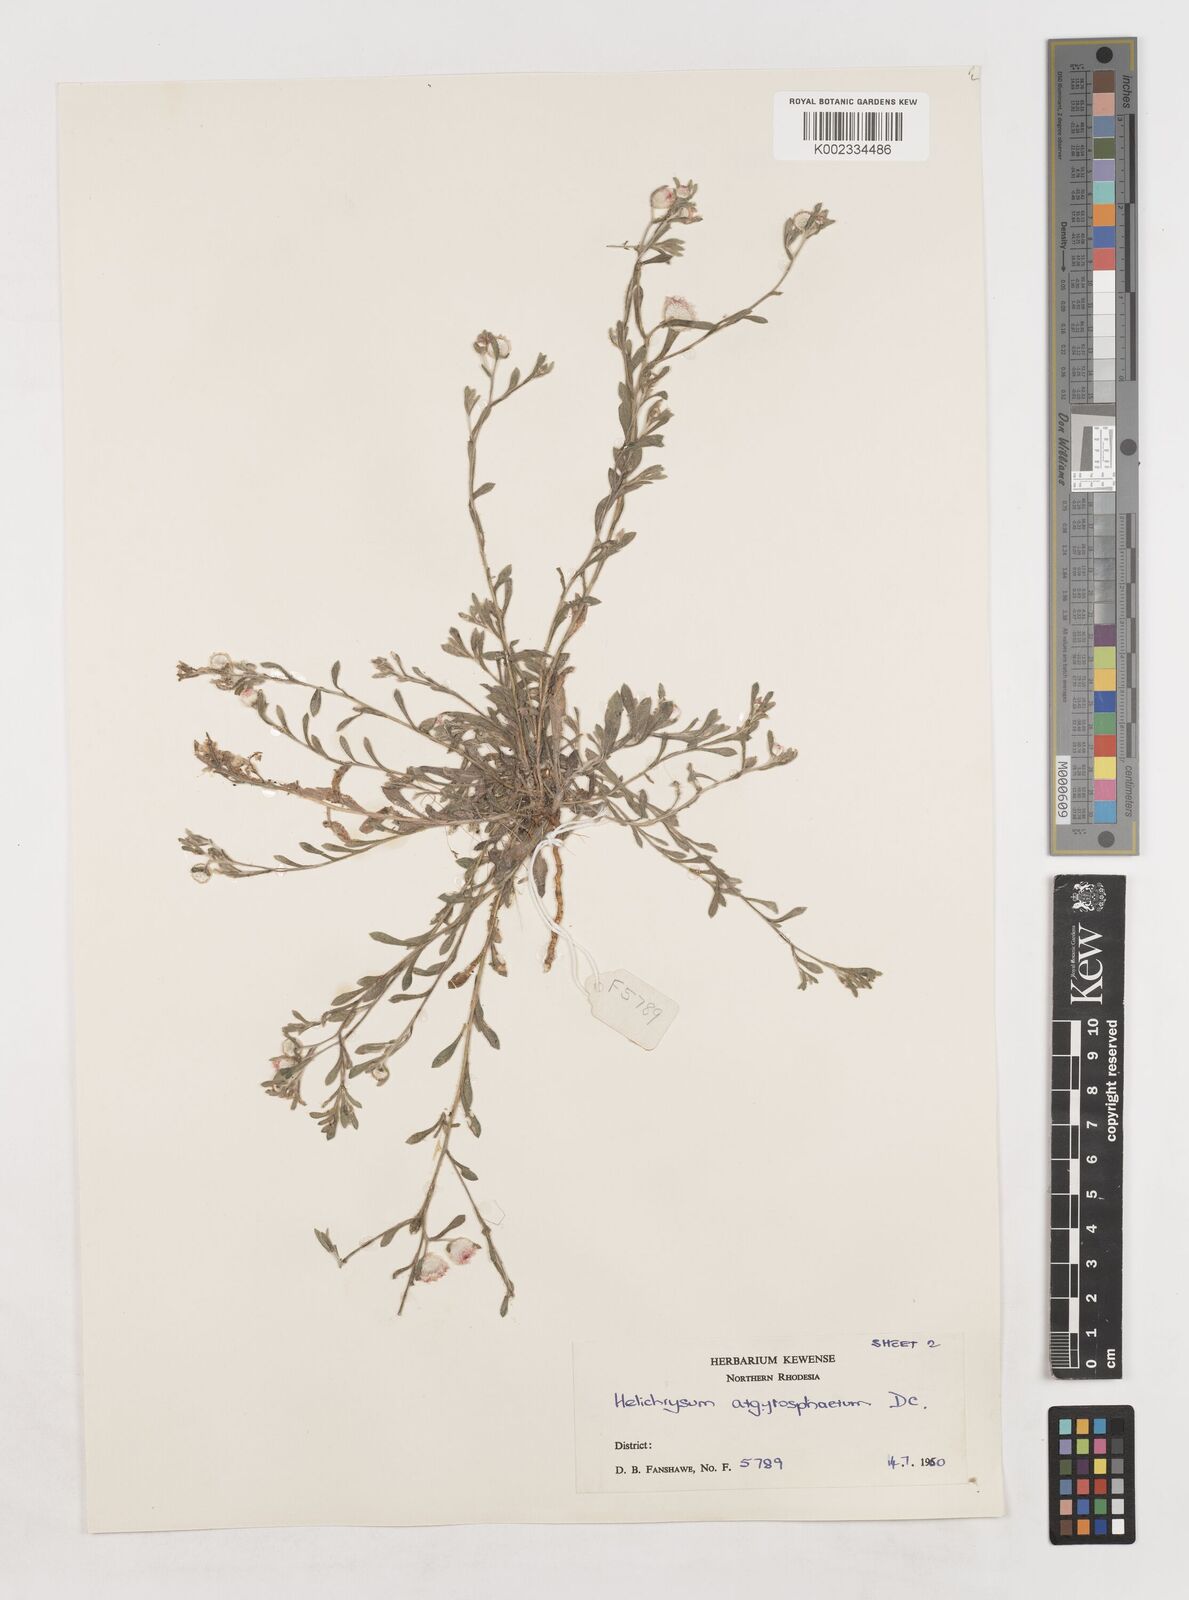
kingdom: Plantae
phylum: Tracheophyta
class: Magnoliopsida
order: Asterales
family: Asteraceae
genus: Helichrysum
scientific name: Helichrysum argyrosphaerum
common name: Wild everlasting
